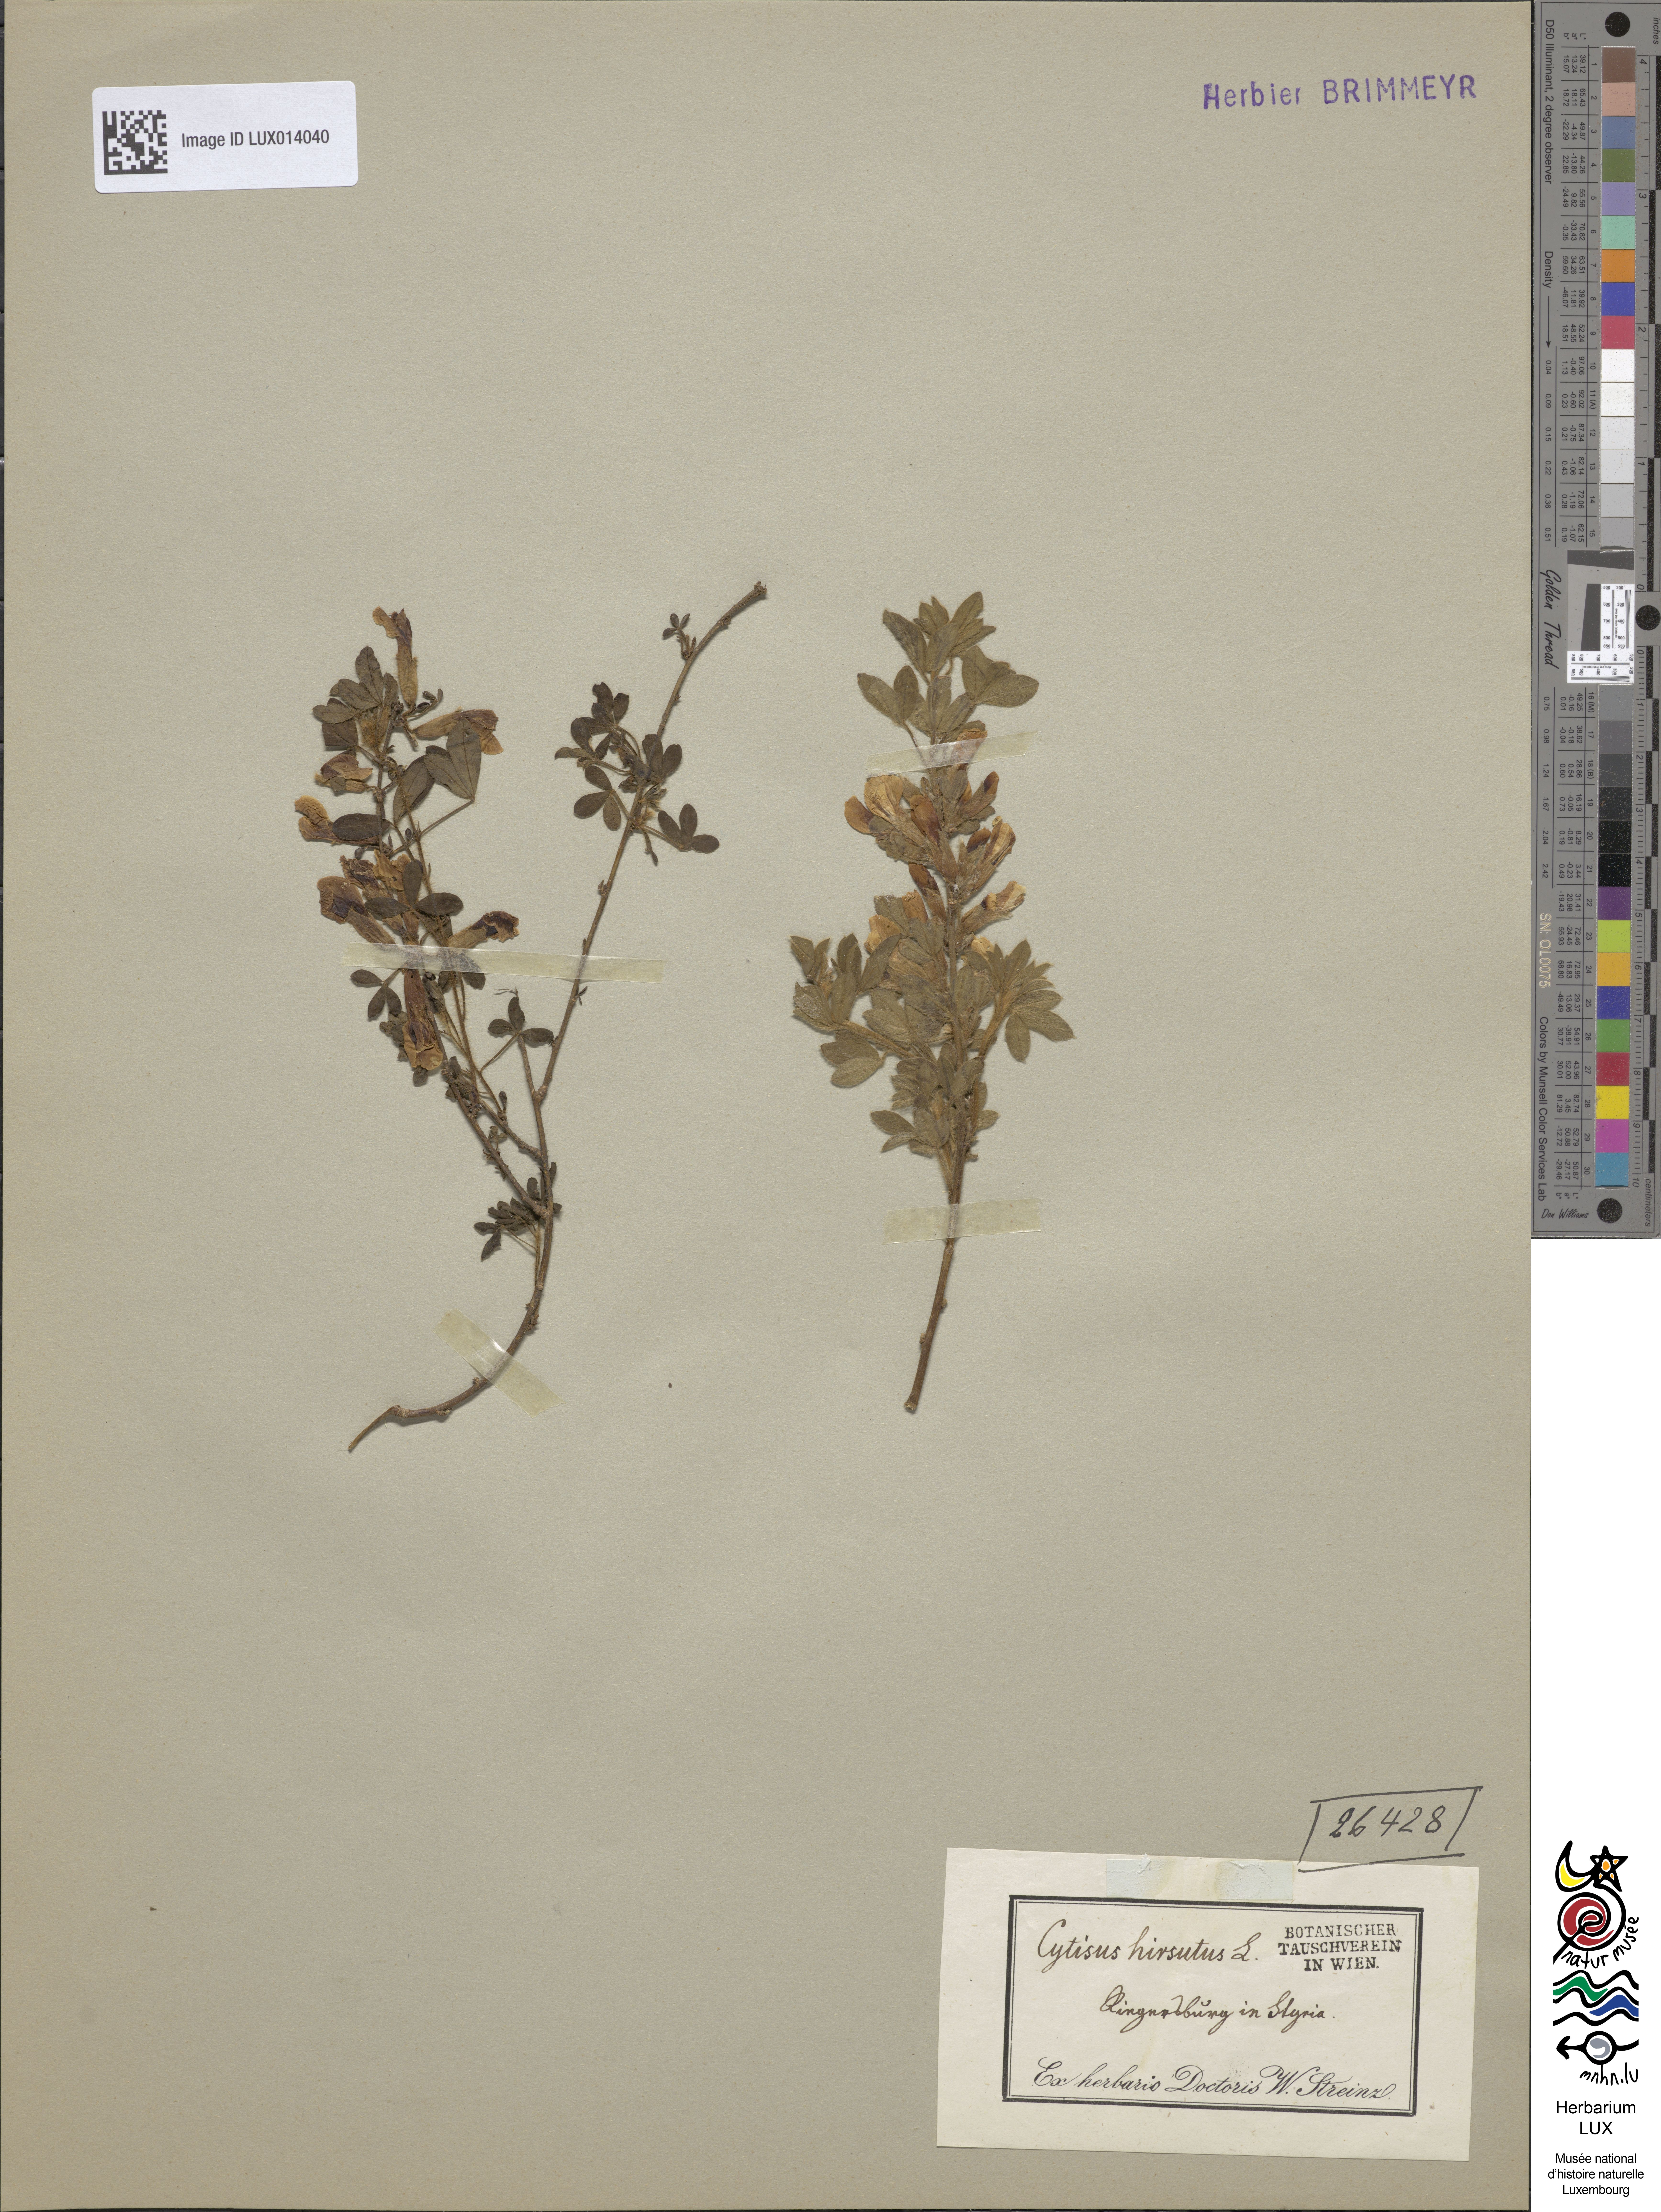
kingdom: Plantae
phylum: Tracheophyta
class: Magnoliopsida
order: Fabales
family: Fabaceae
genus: Chamaecytisus
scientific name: Chamaecytisus hirsutus
